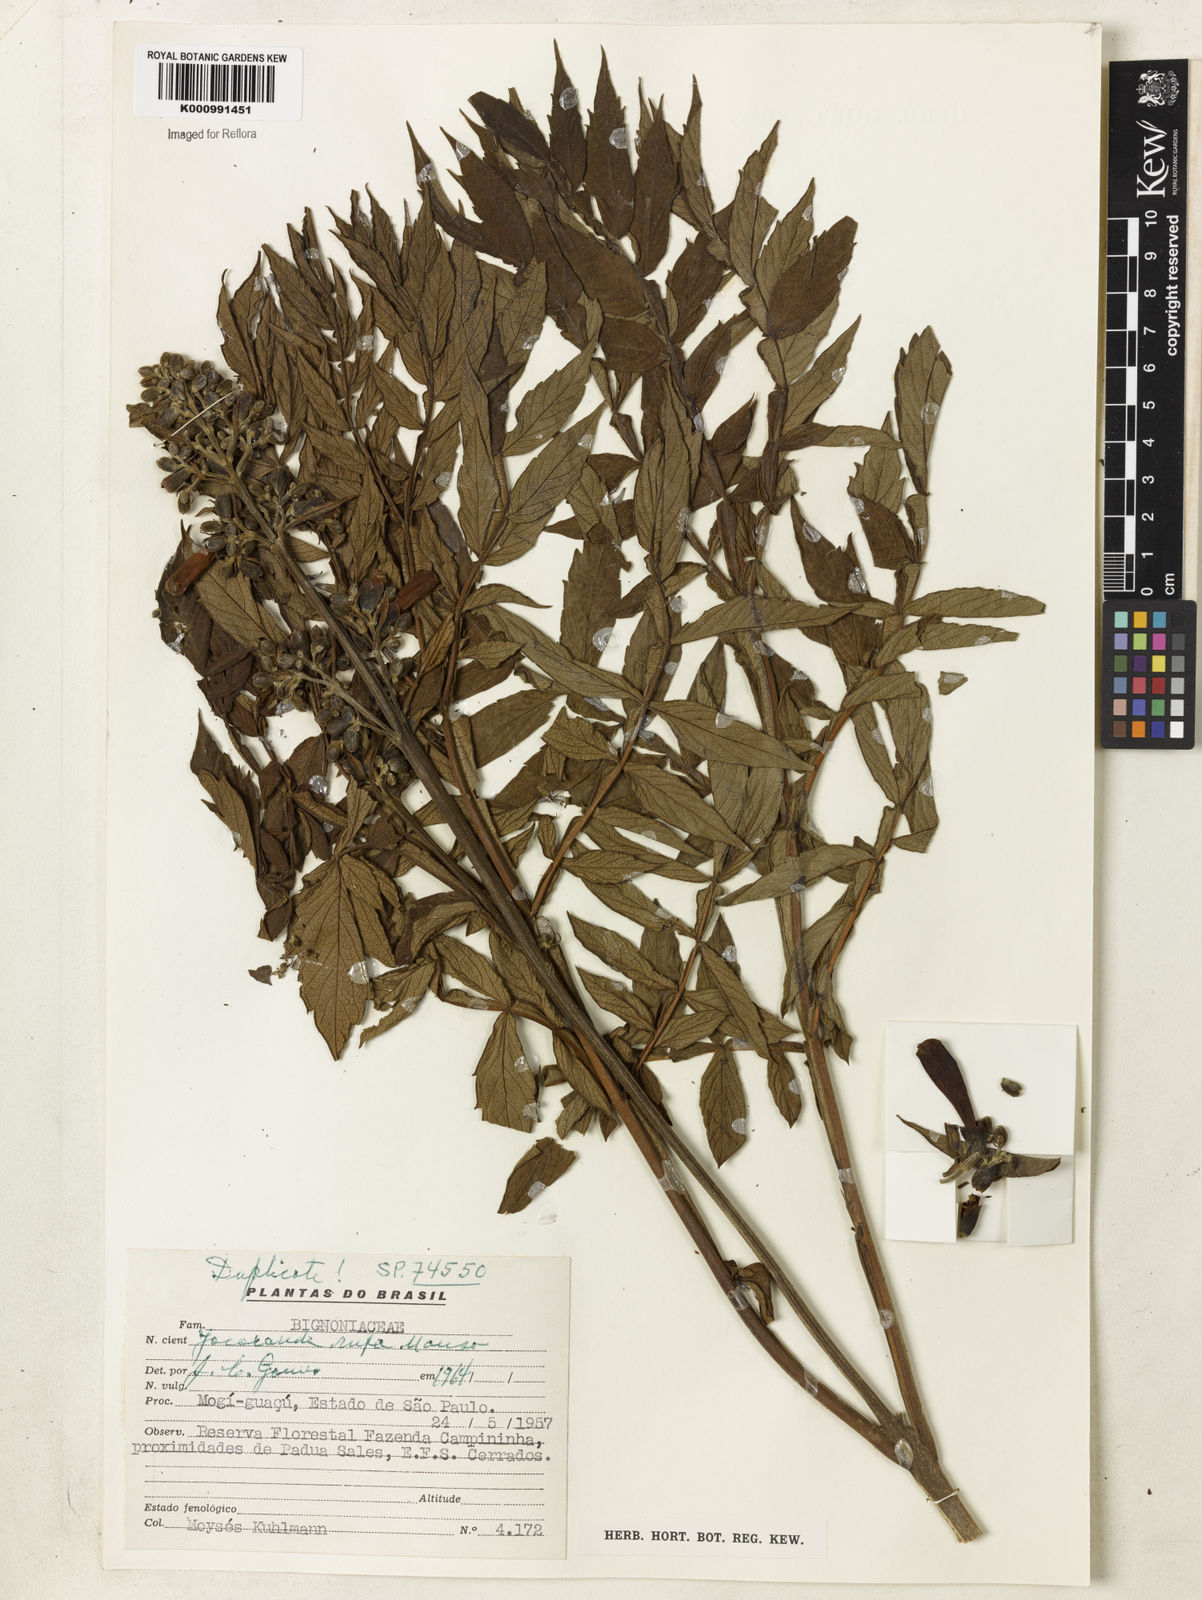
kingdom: Plantae
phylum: Tracheophyta
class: Magnoliopsida
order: Lamiales
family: Bignoniaceae
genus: Jacaranda
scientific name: Jacaranda rufa
